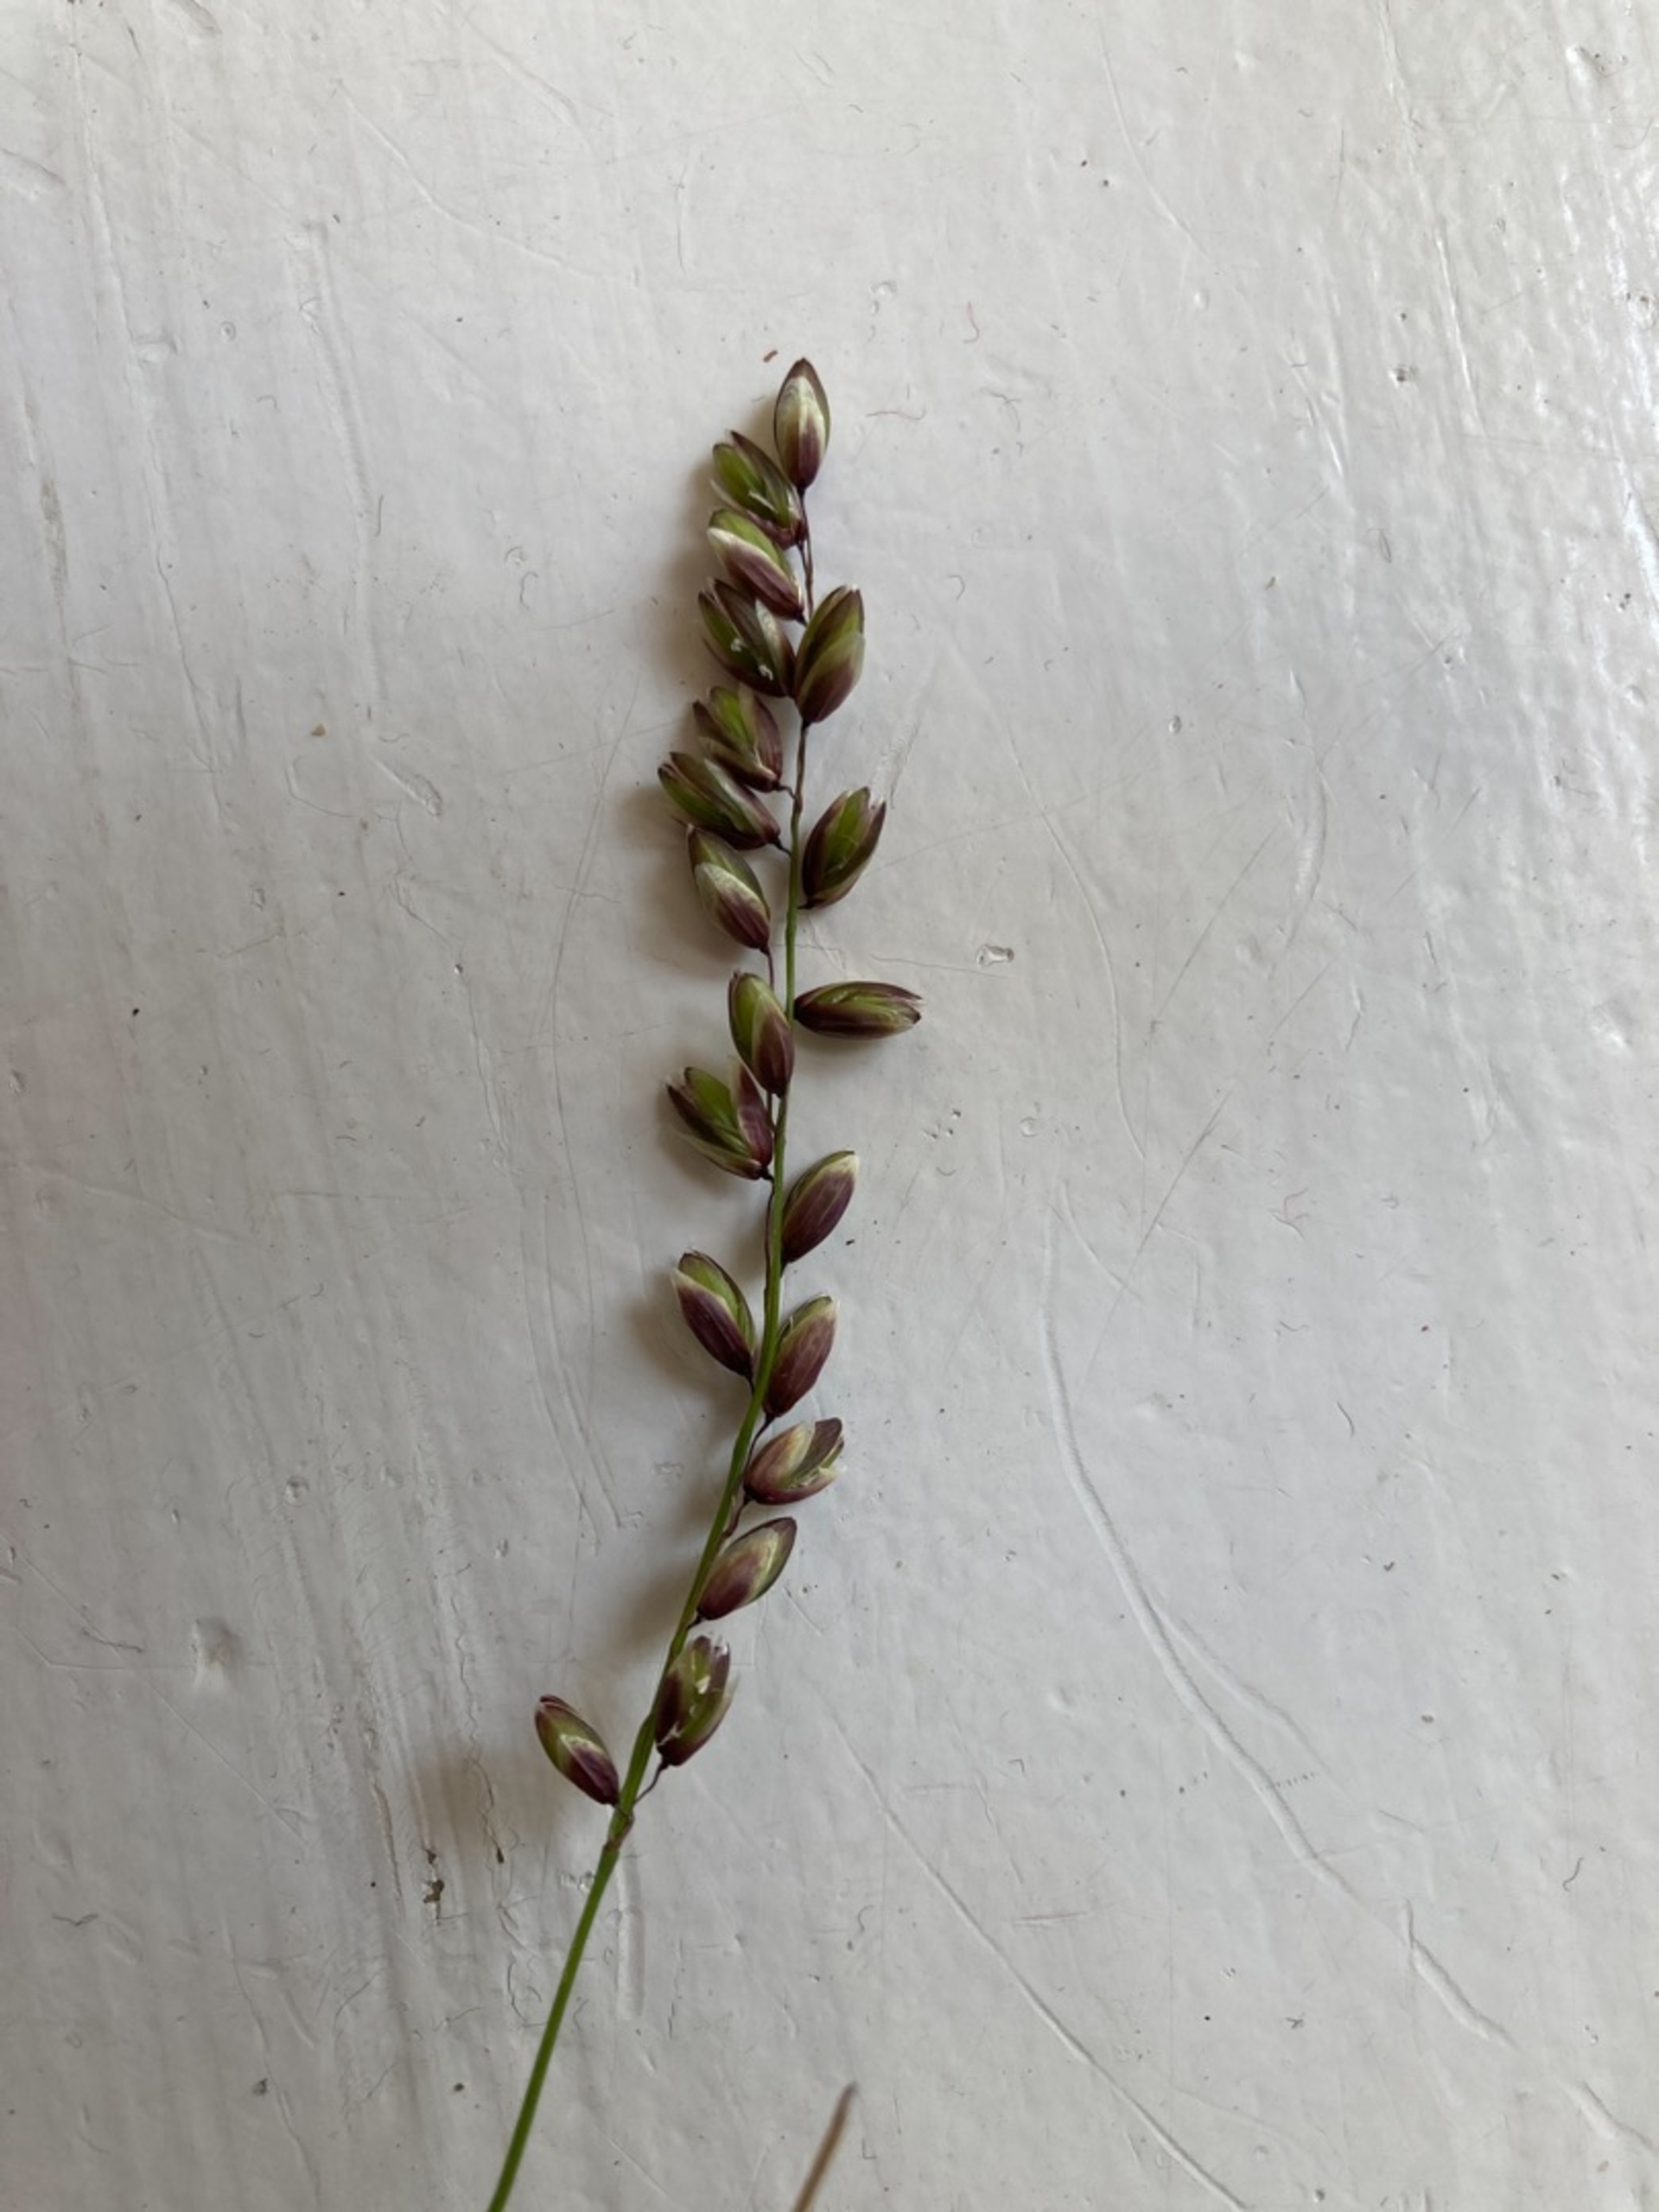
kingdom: Plantae
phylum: Tracheophyta
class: Liliopsida
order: Poales
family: Poaceae
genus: Melica
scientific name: Melica nutans
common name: Nikkende flitteraks
